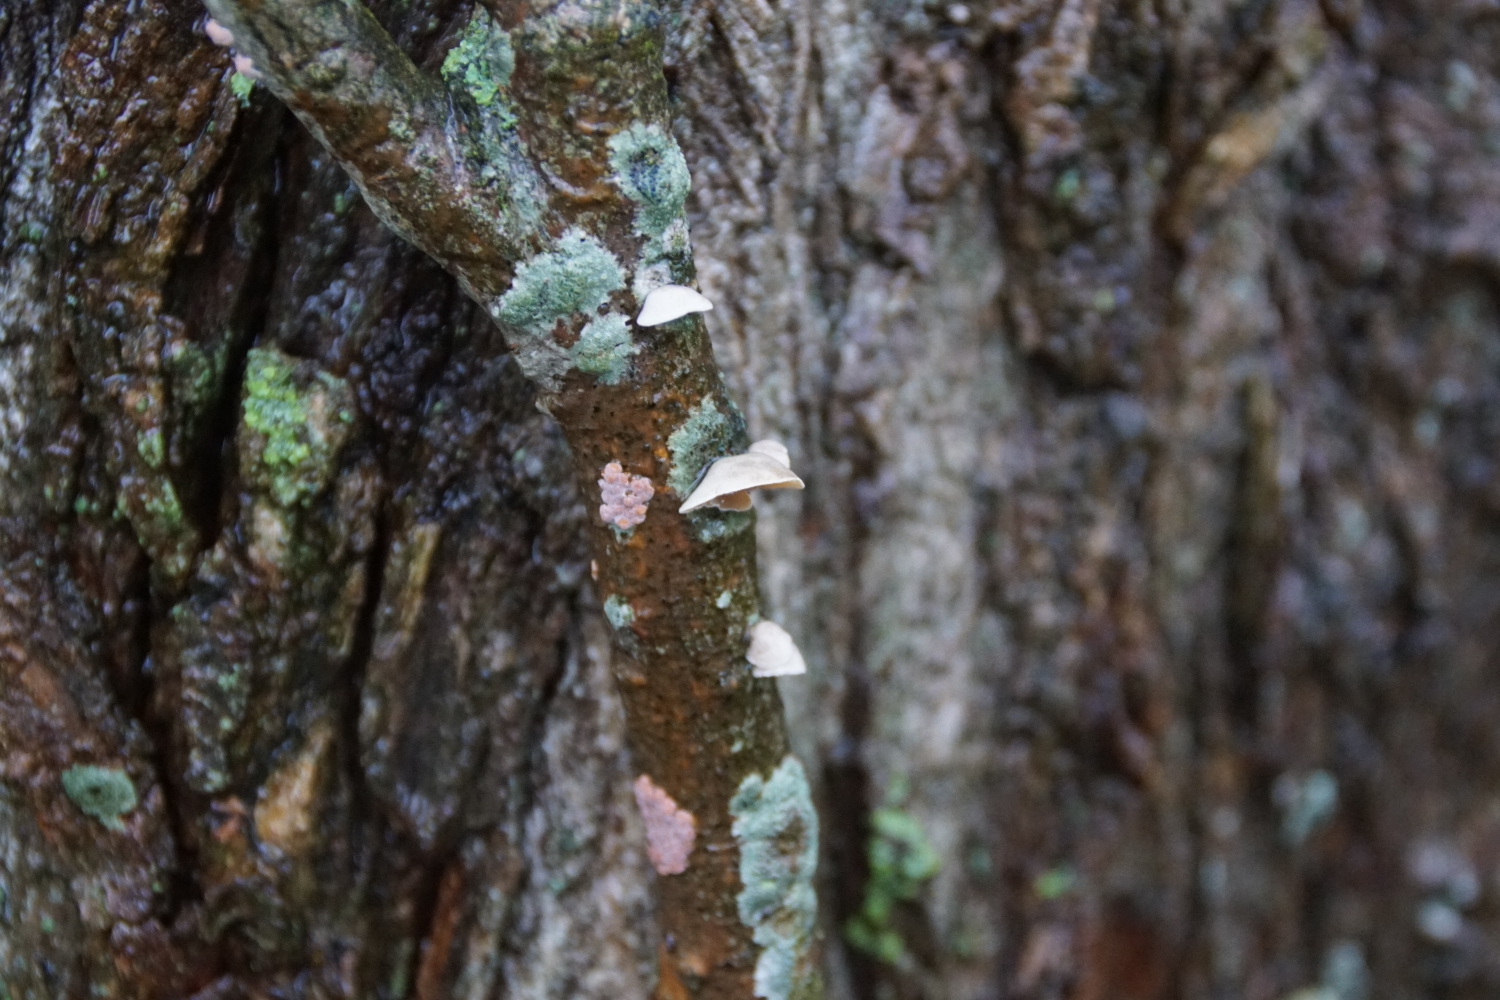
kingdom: Fungi
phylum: Basidiomycota
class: Agaricomycetes
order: Agaricales
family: Schizophyllaceae
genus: Schizophyllum
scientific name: Schizophyllum amplum
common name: poppel-hængeøre
